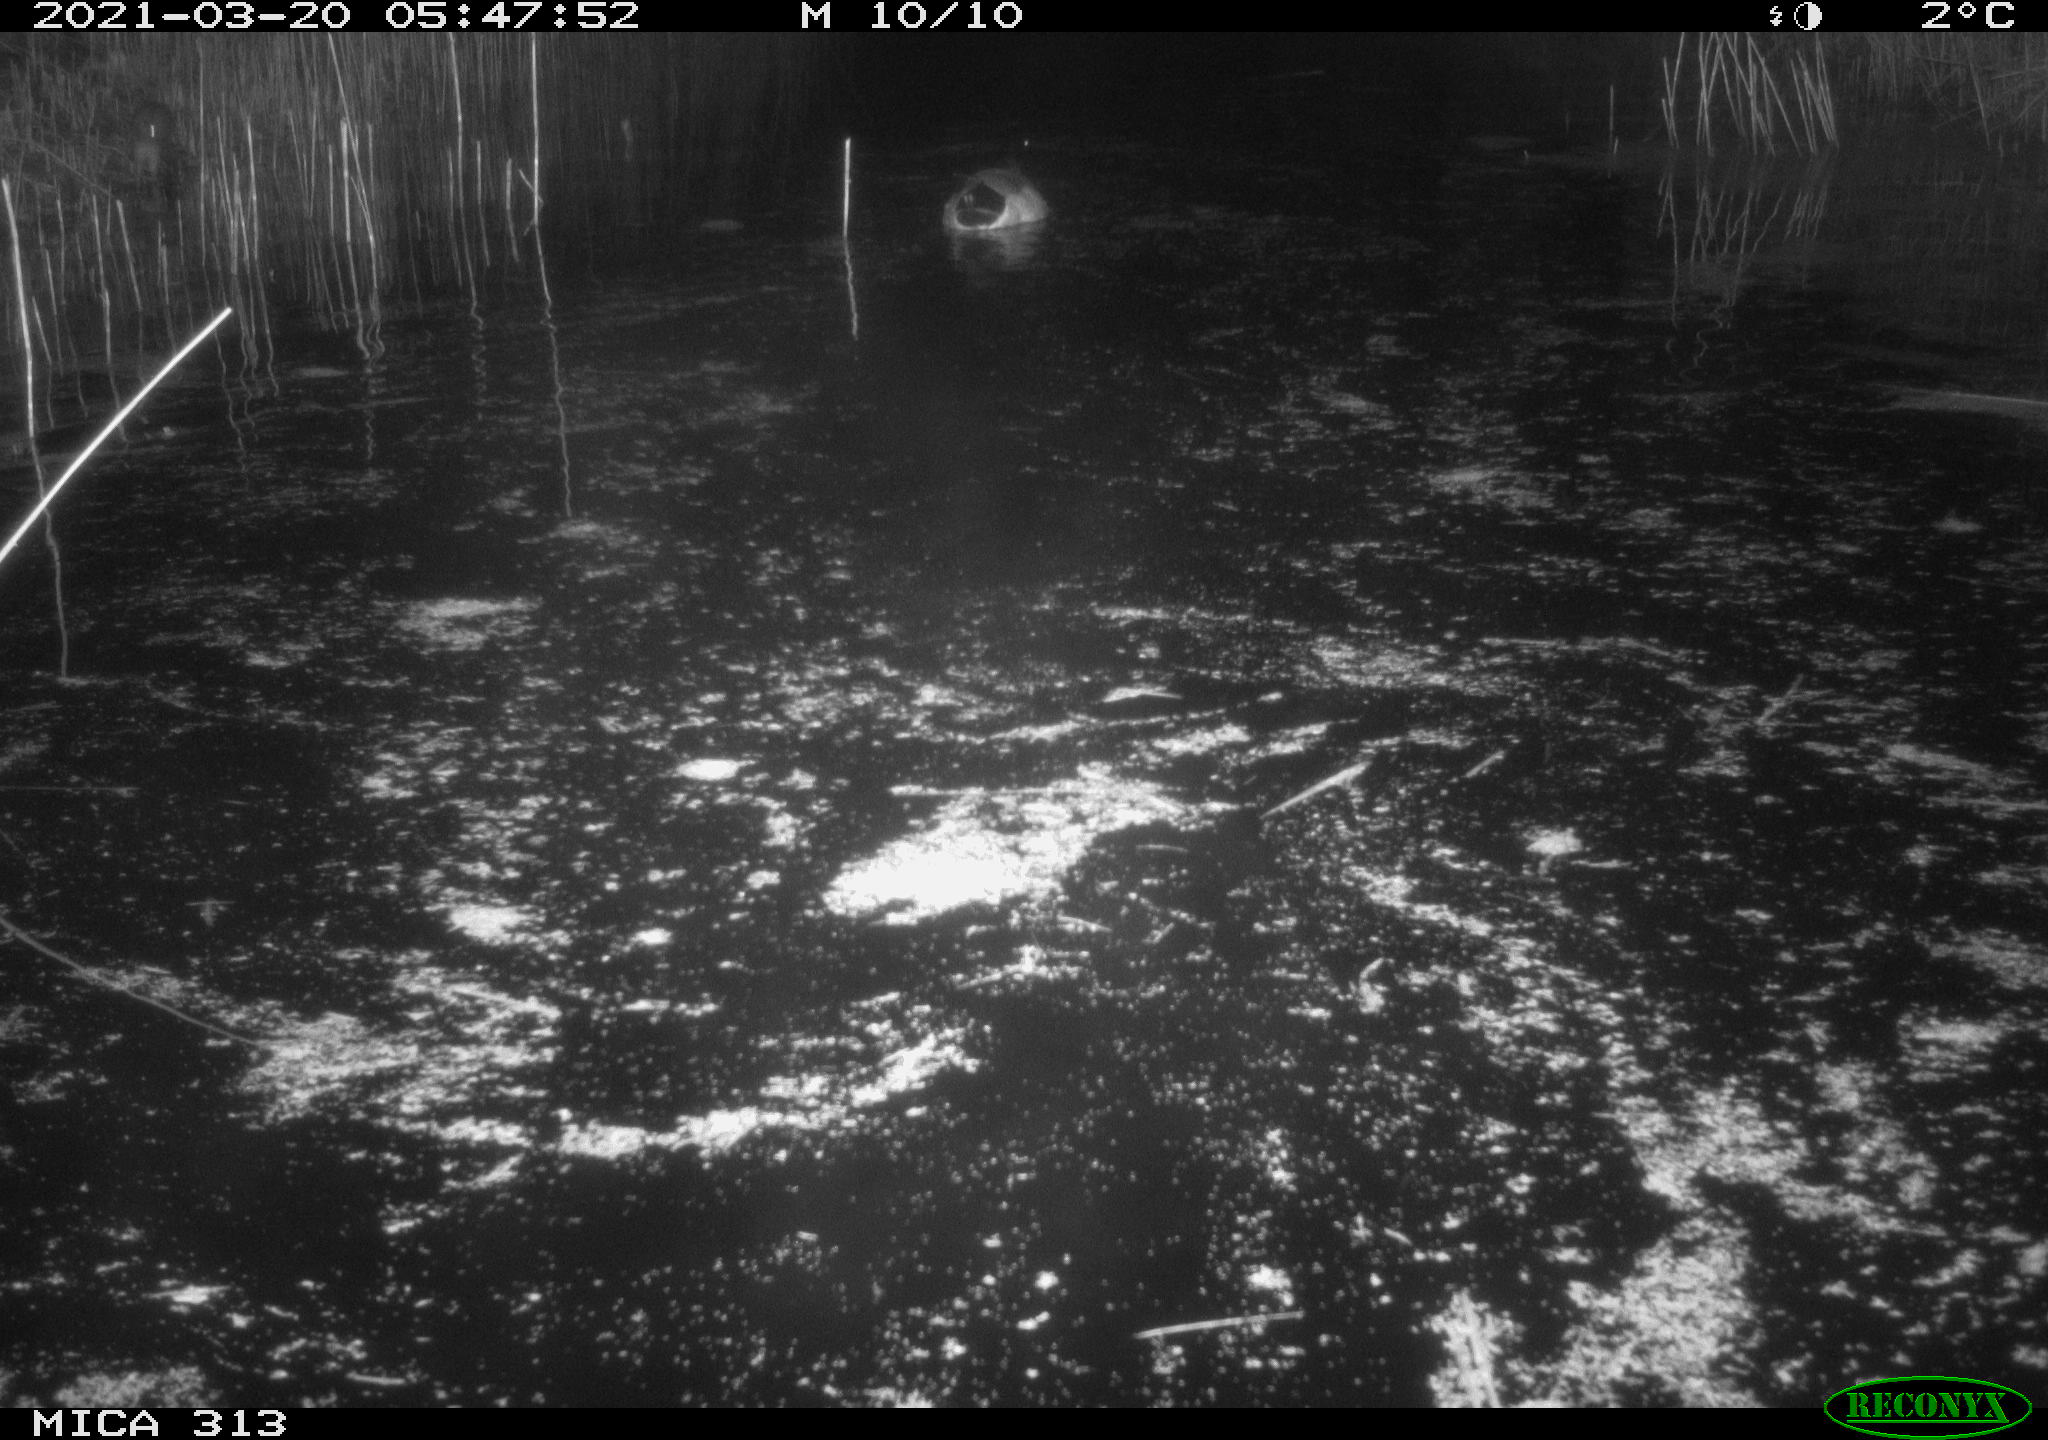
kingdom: Animalia
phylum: Chordata
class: Aves
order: Anseriformes
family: Anatidae
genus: Anas
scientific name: Anas platyrhynchos
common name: Mallard
